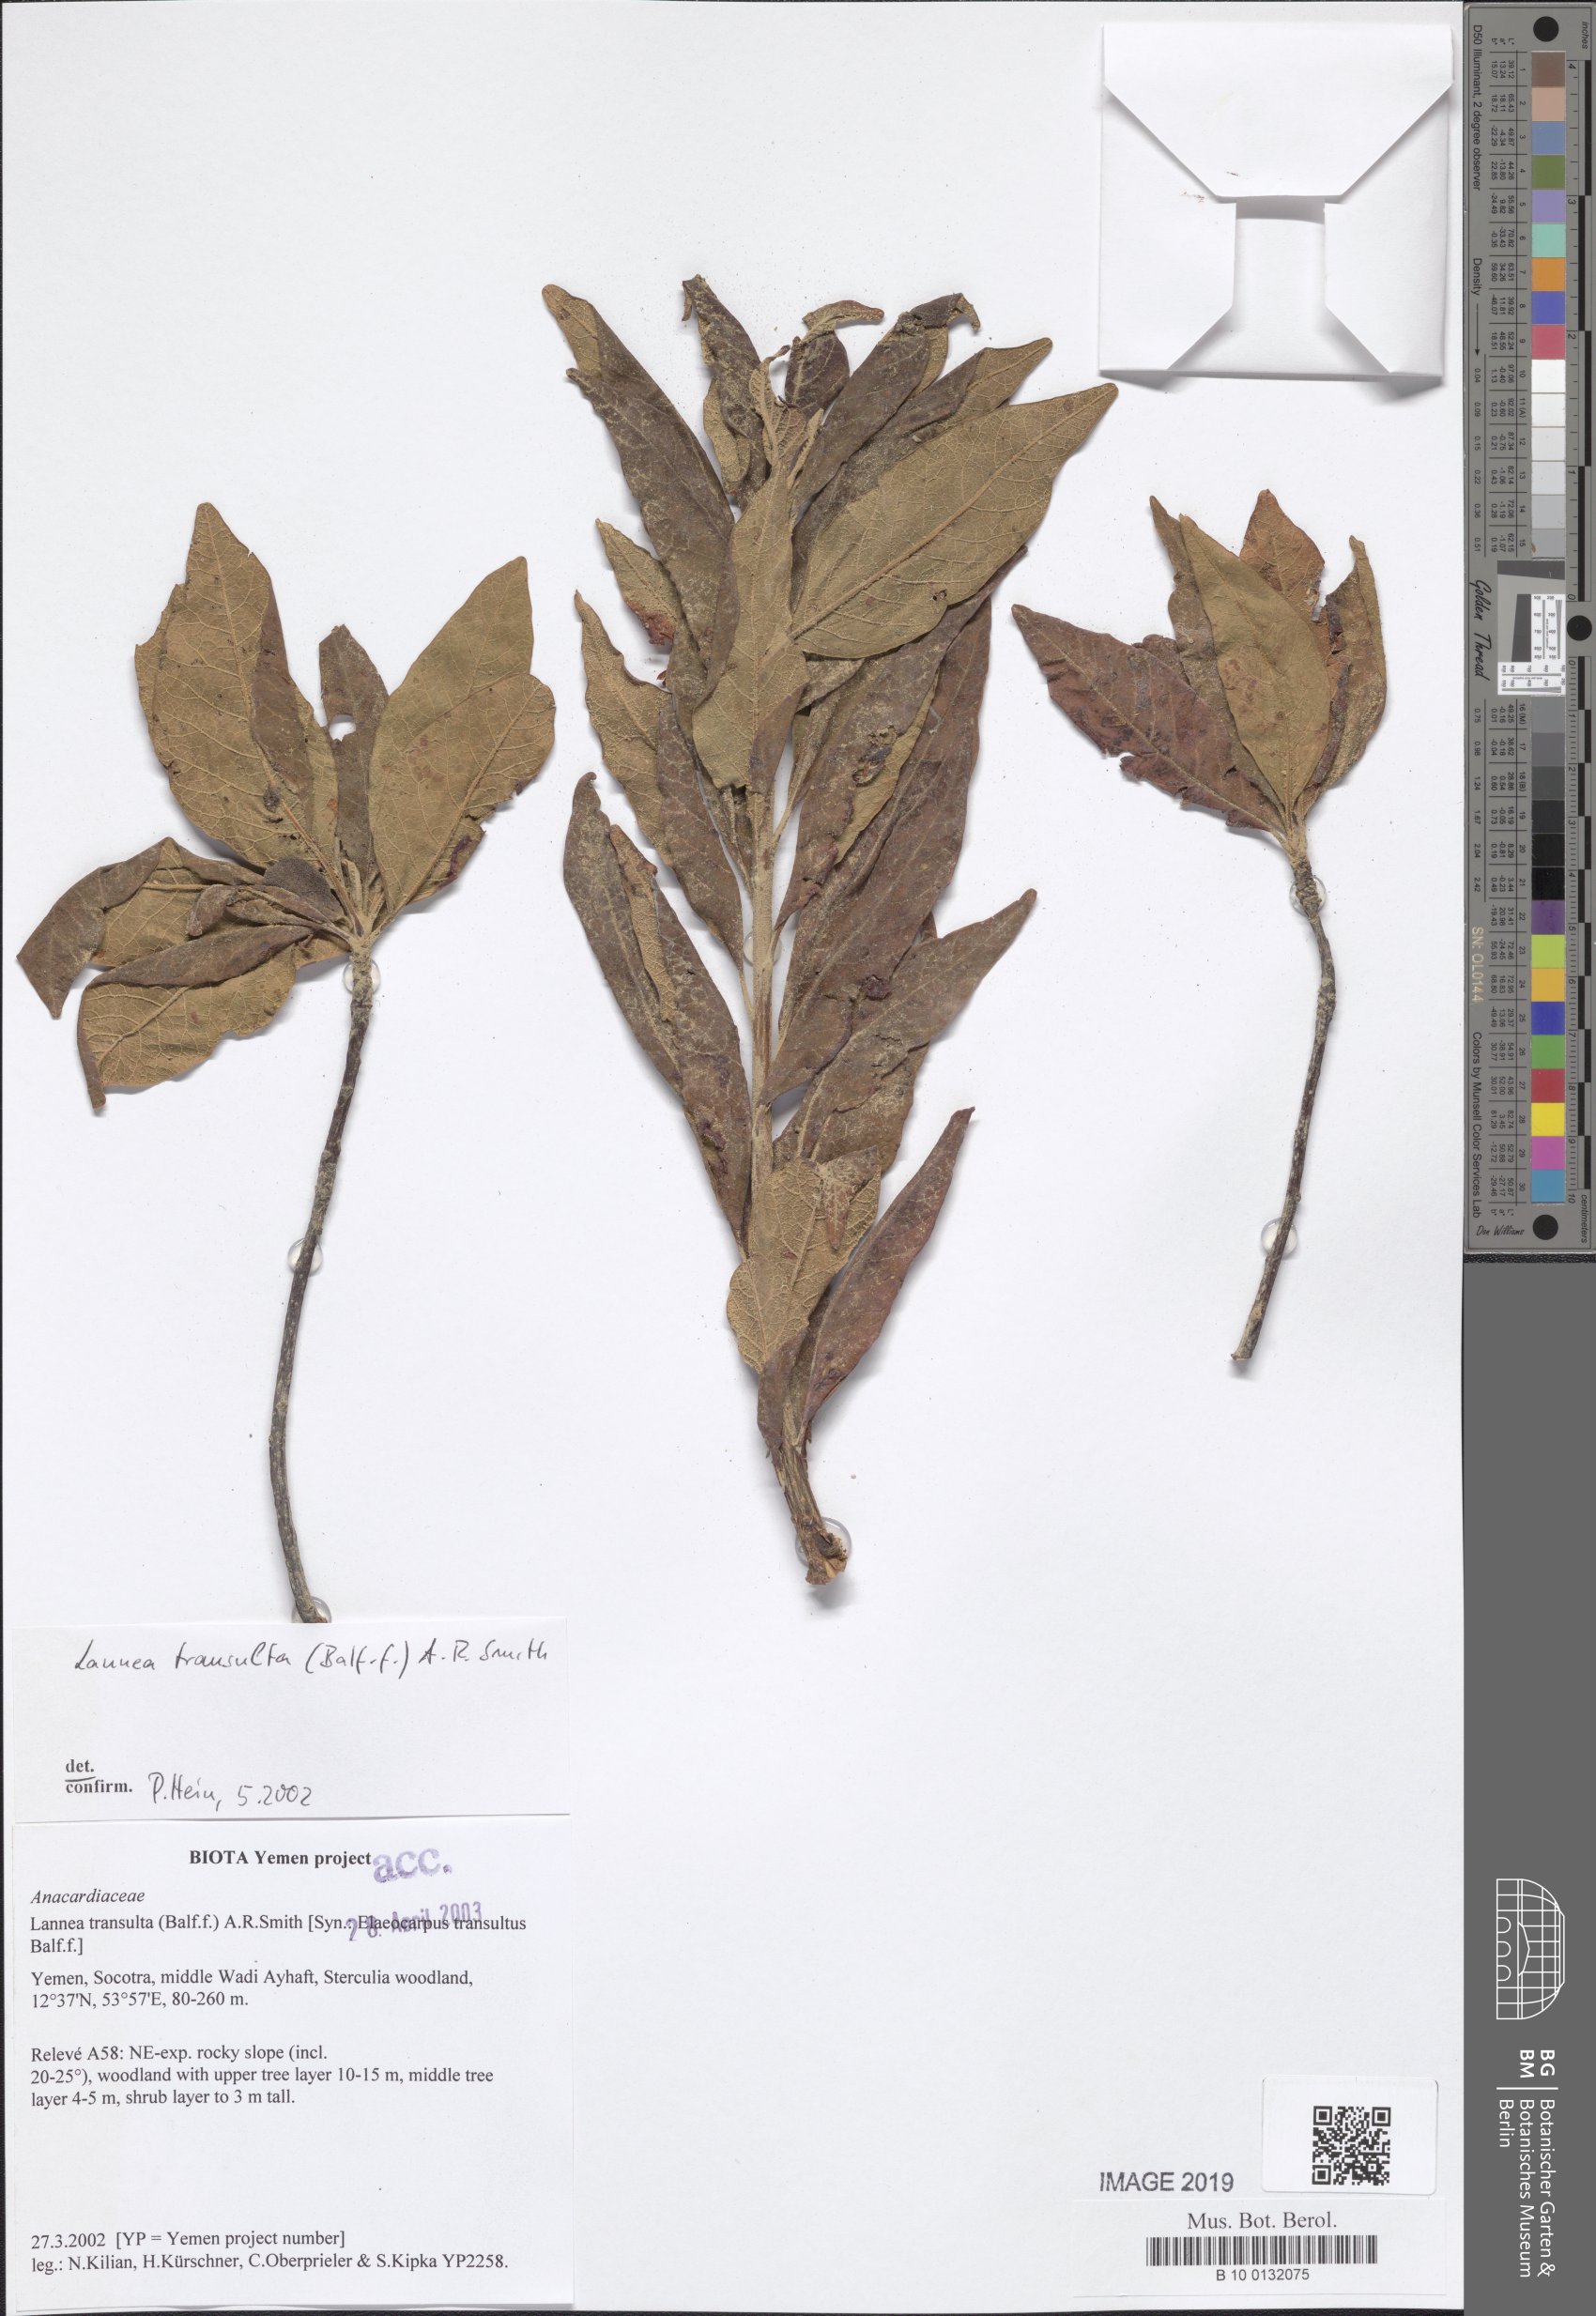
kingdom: Plantae
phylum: Tracheophyta
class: Magnoliopsida
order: Sapindales
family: Anacardiaceae
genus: Lannea
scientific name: Lannea transulta
